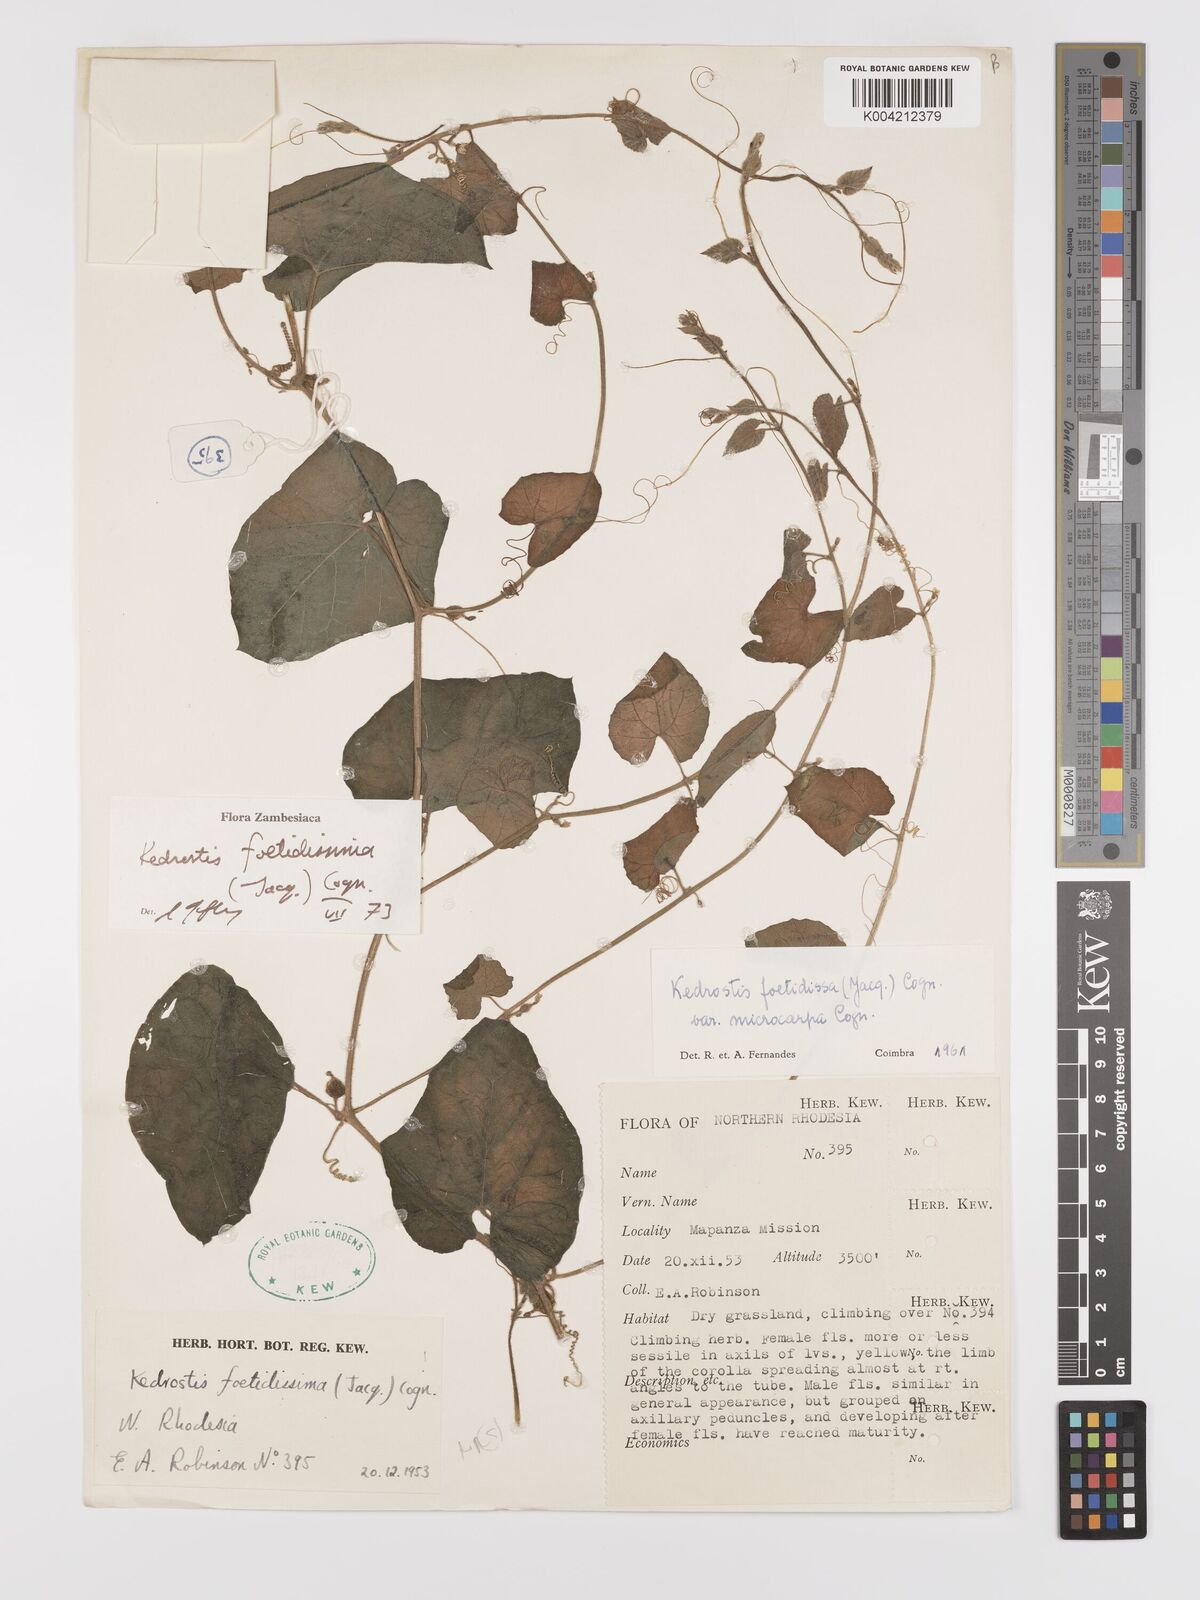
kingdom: Plantae
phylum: Tracheophyta
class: Magnoliopsida
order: Cucurbitales
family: Cucurbitaceae
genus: Kedrostis
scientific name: Kedrostis foetidissima
